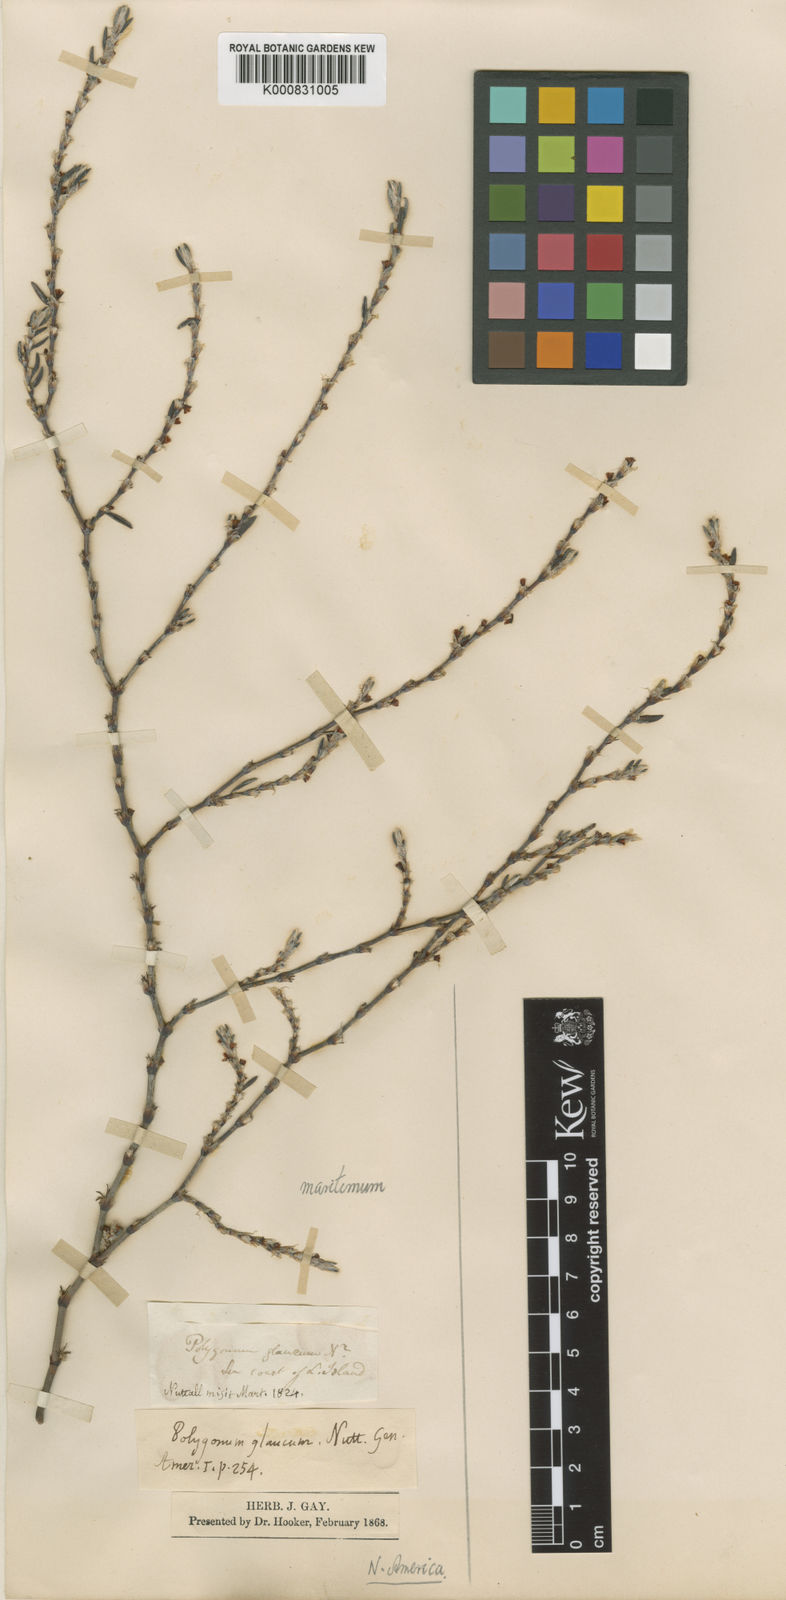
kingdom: Plantae
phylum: Tracheophyta
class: Magnoliopsida
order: Caryophyllales
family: Polygonaceae
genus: Polygonum
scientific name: Polygonum maritimum
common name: Sea knotgrass
